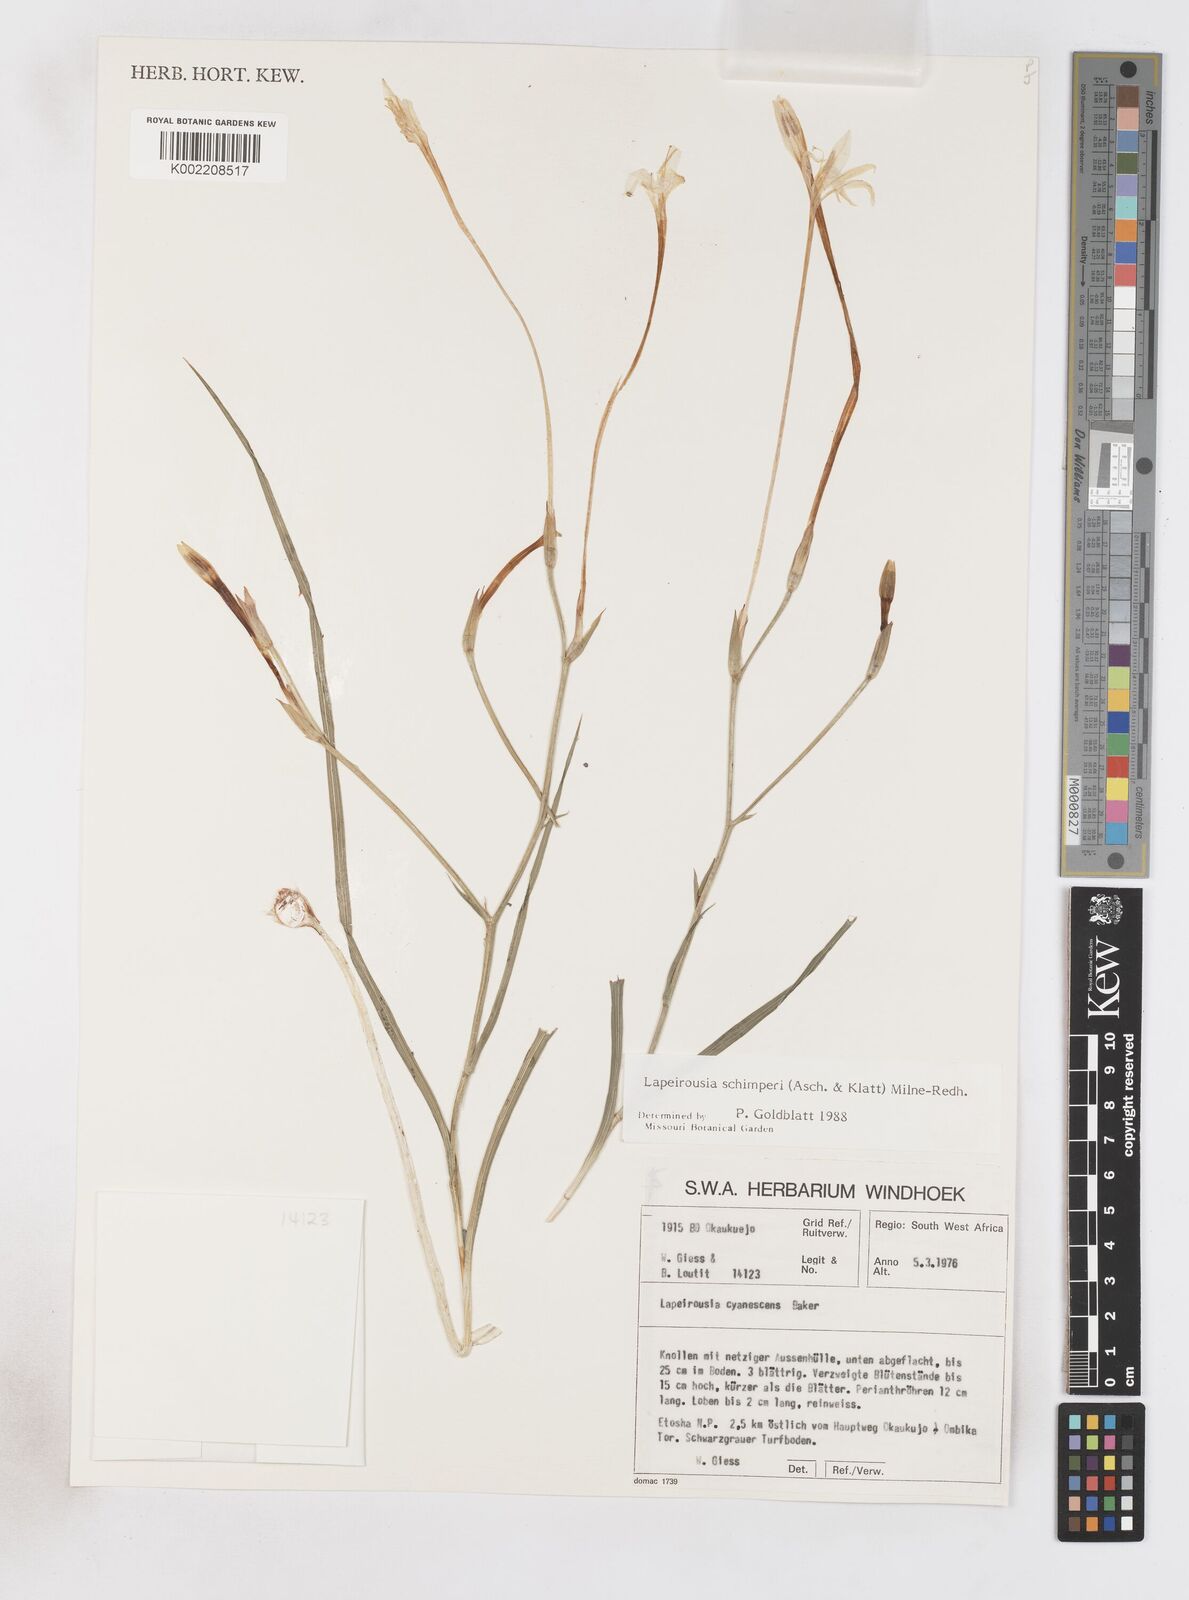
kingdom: Plantae
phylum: Tracheophyta
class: Liliopsida
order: Asparagales
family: Iridaceae
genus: Afrosolen
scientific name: Afrosolen schimperi
